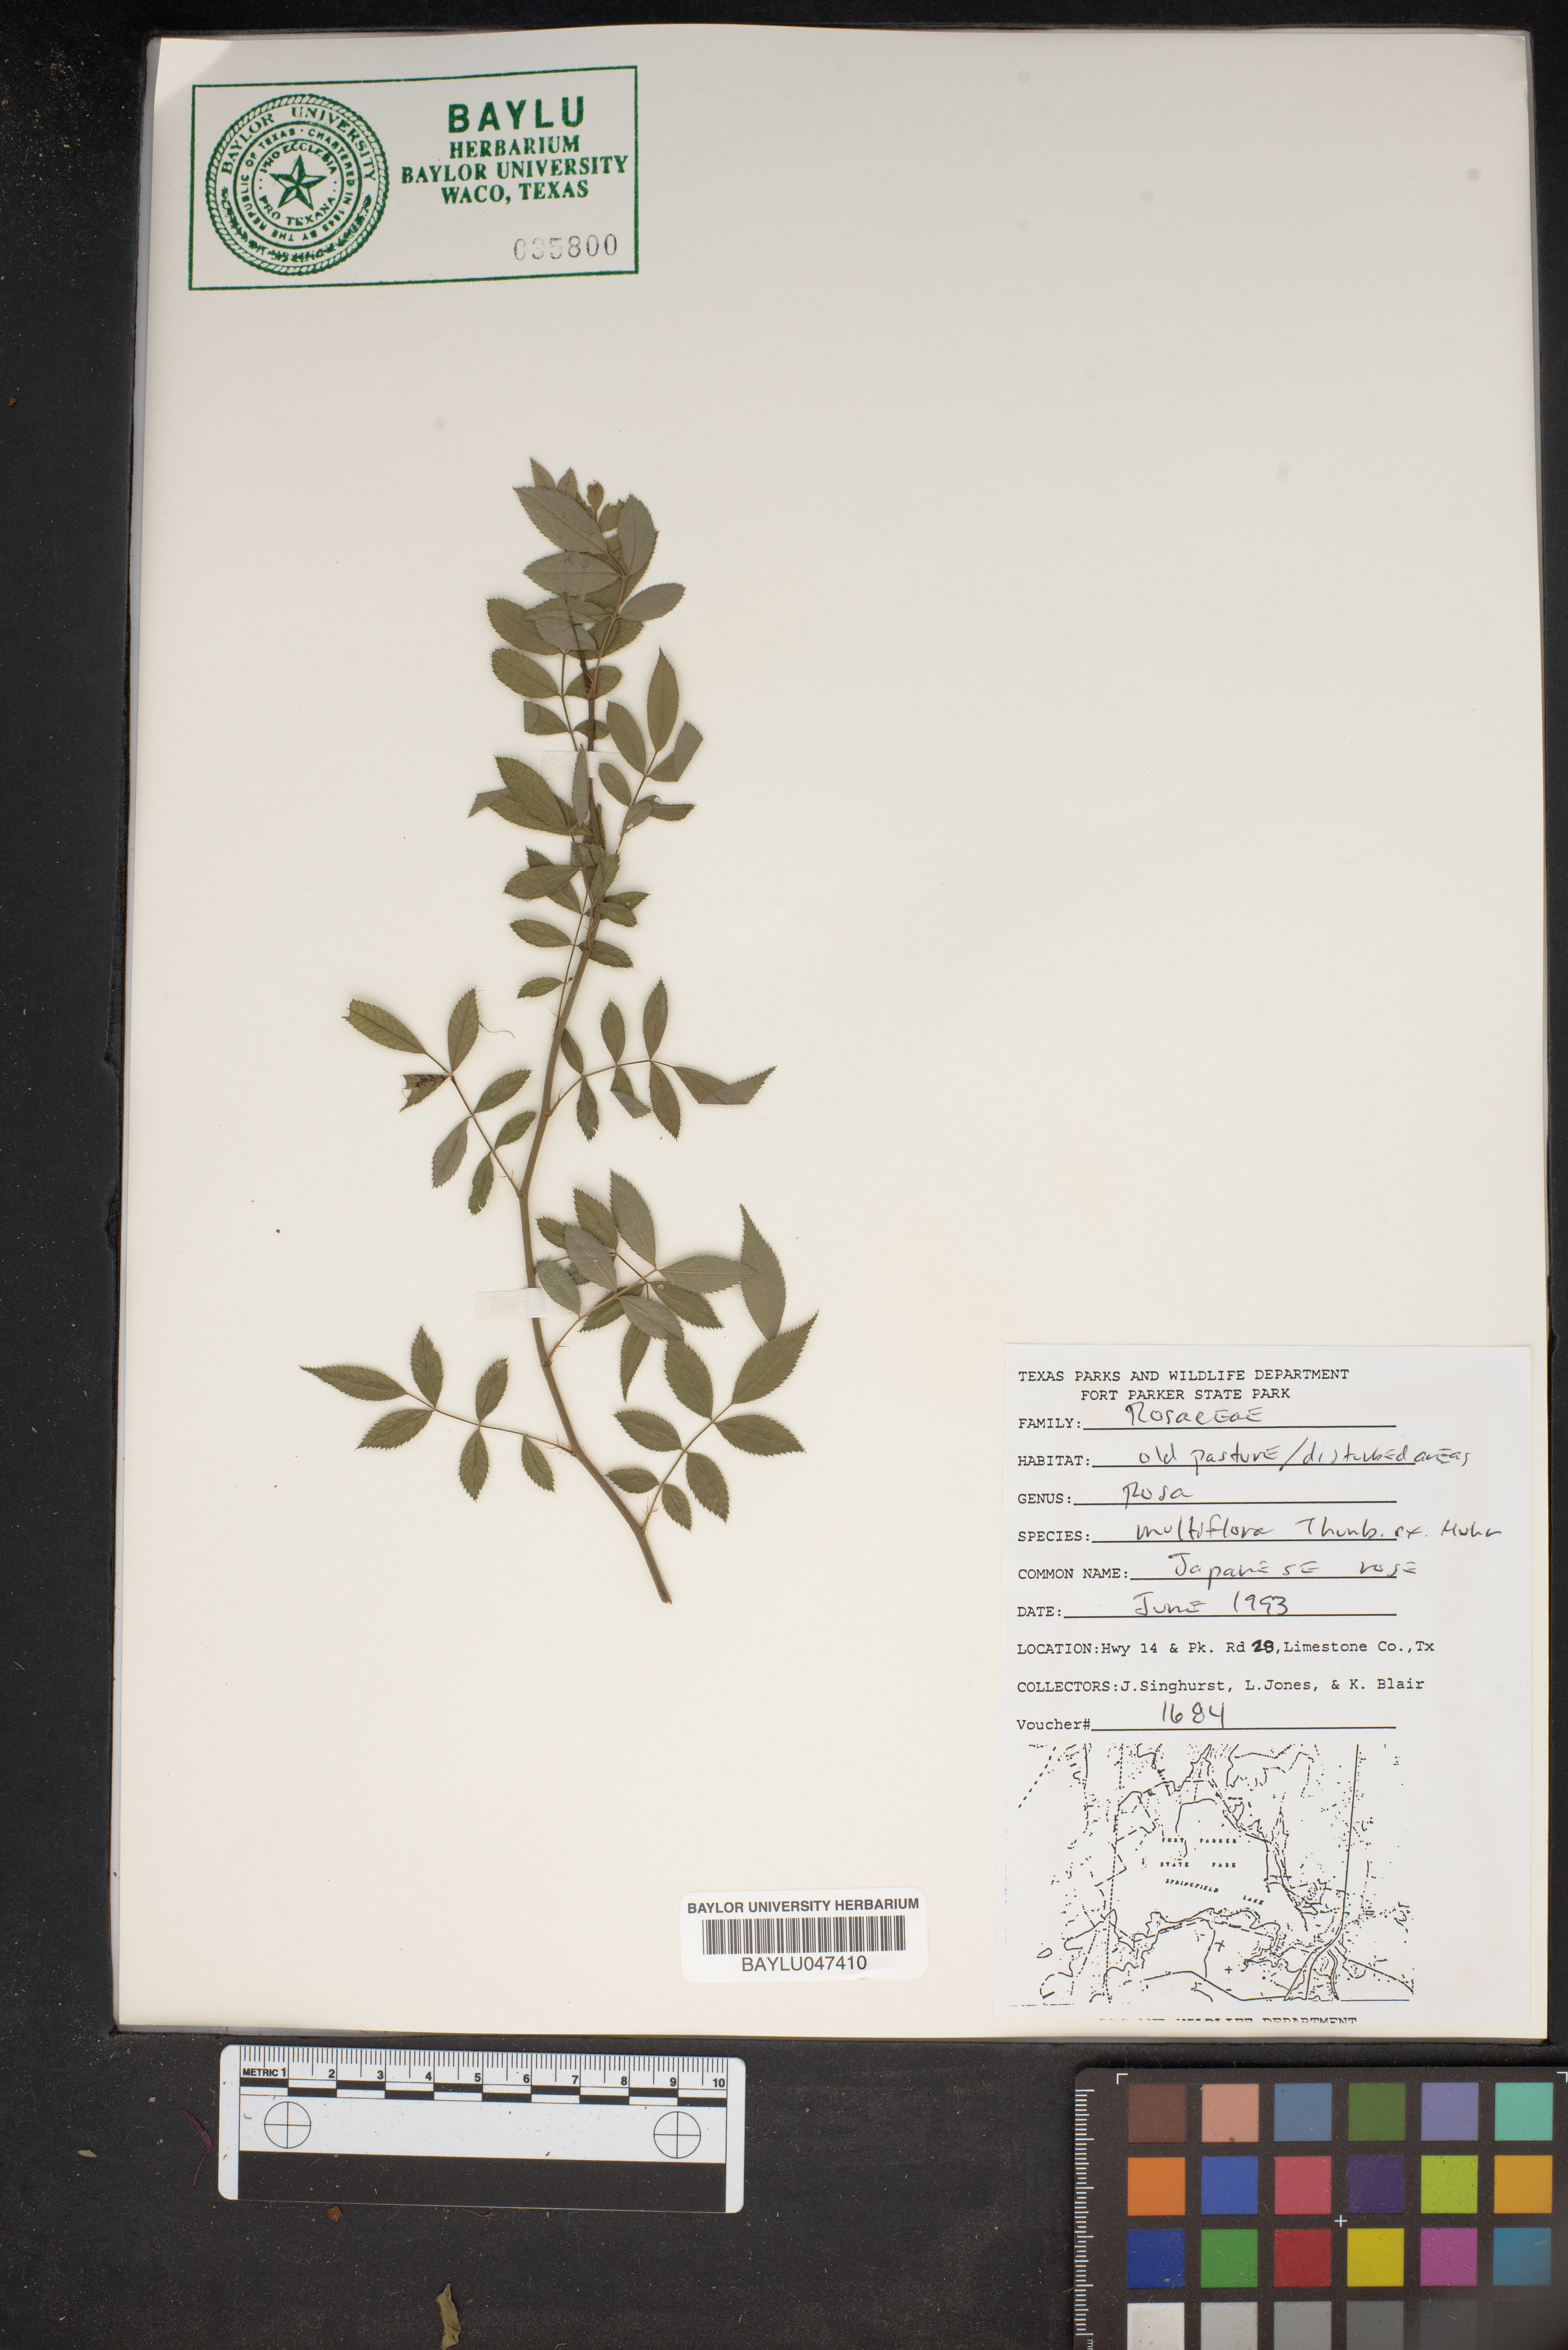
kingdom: Plantae
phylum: Tracheophyta
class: Magnoliopsida
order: Rosales
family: Rosaceae
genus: Rosa
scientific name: Rosa multiflora
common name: Multiflora rose
